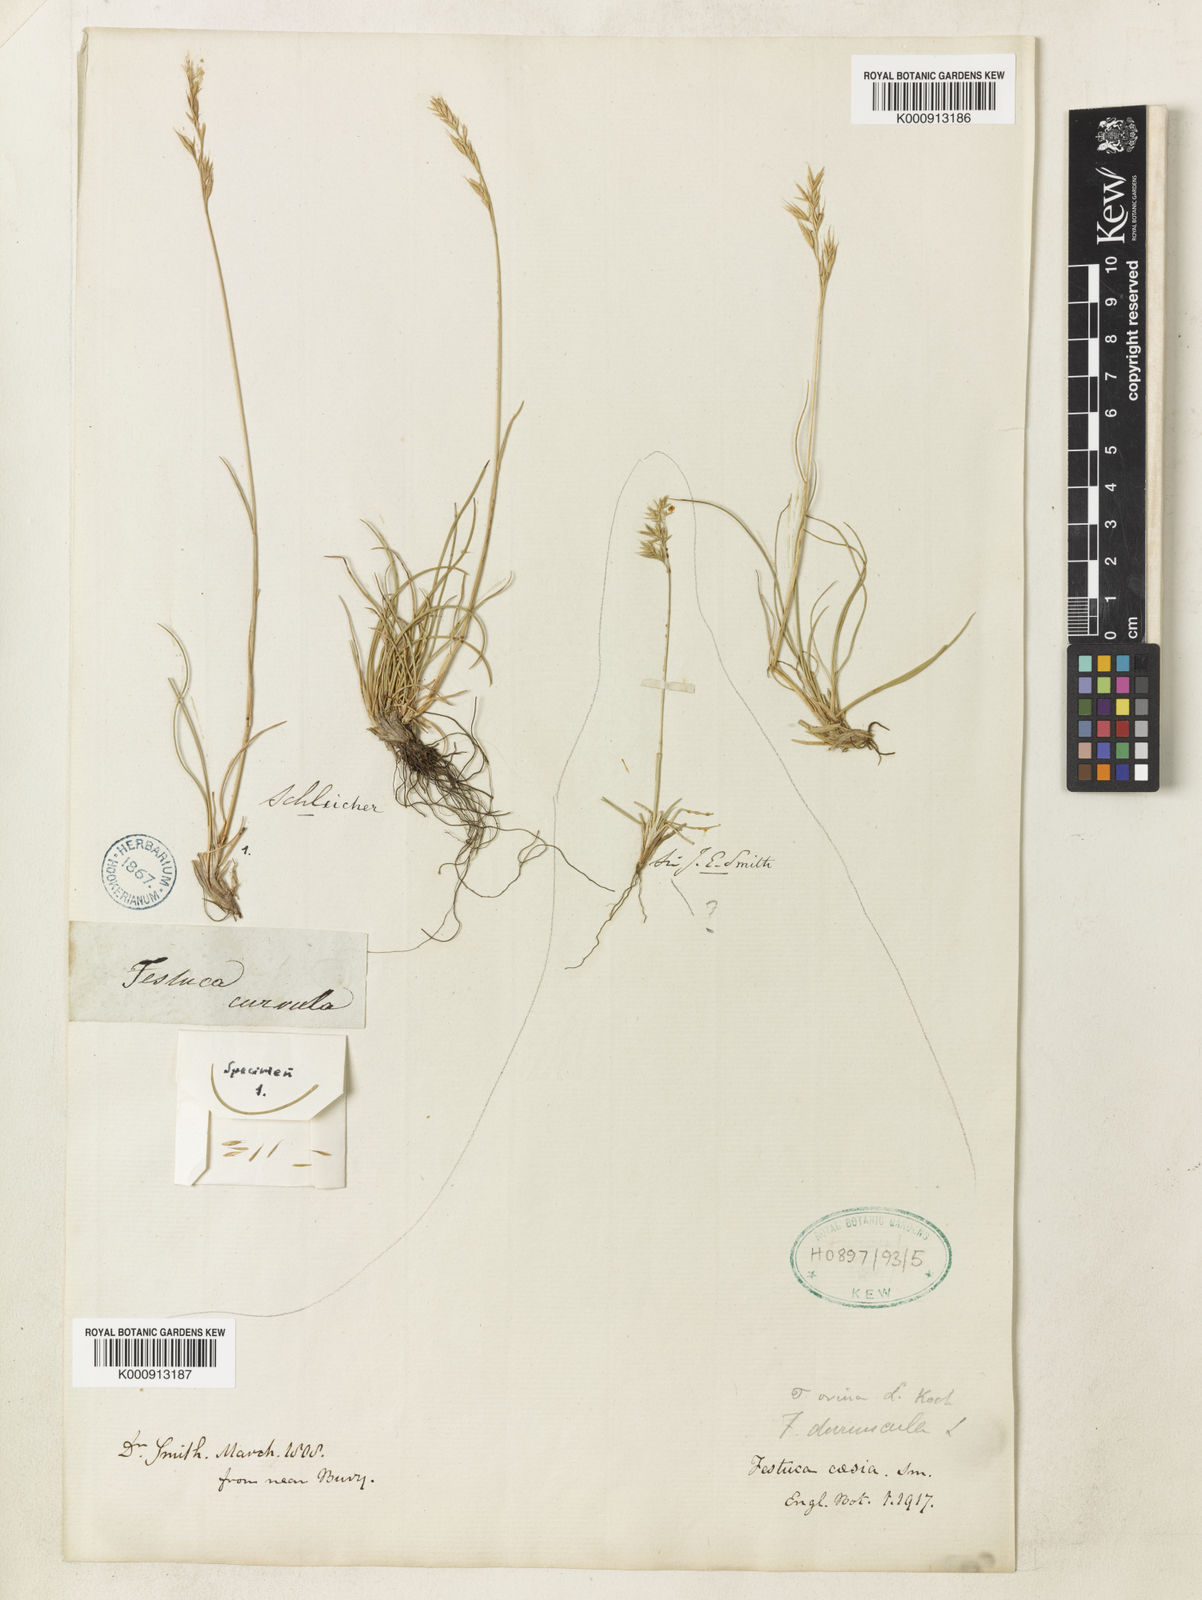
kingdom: Plantae
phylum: Tracheophyta
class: Liliopsida
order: Poales
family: Poaceae
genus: Festuca
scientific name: Festuca curvula
